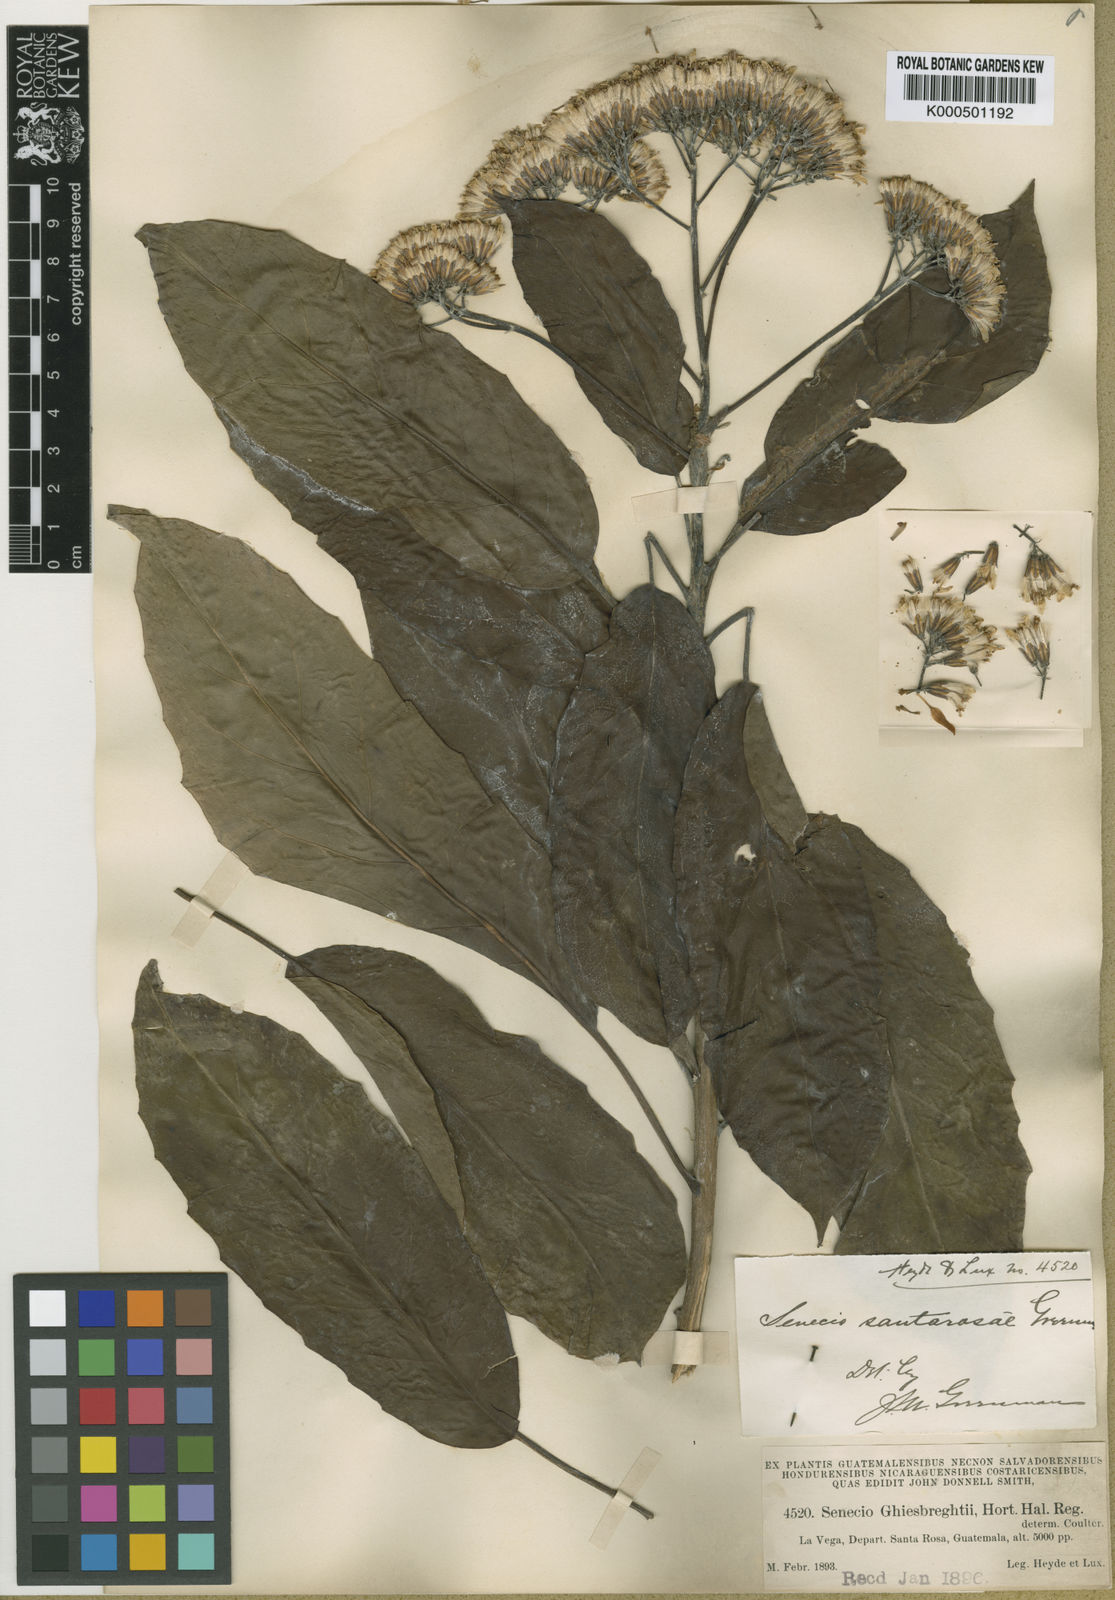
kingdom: Plantae
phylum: Tracheophyta
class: Magnoliopsida
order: Asterales
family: Asteraceae
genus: Roldana
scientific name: Roldana schaffneri
